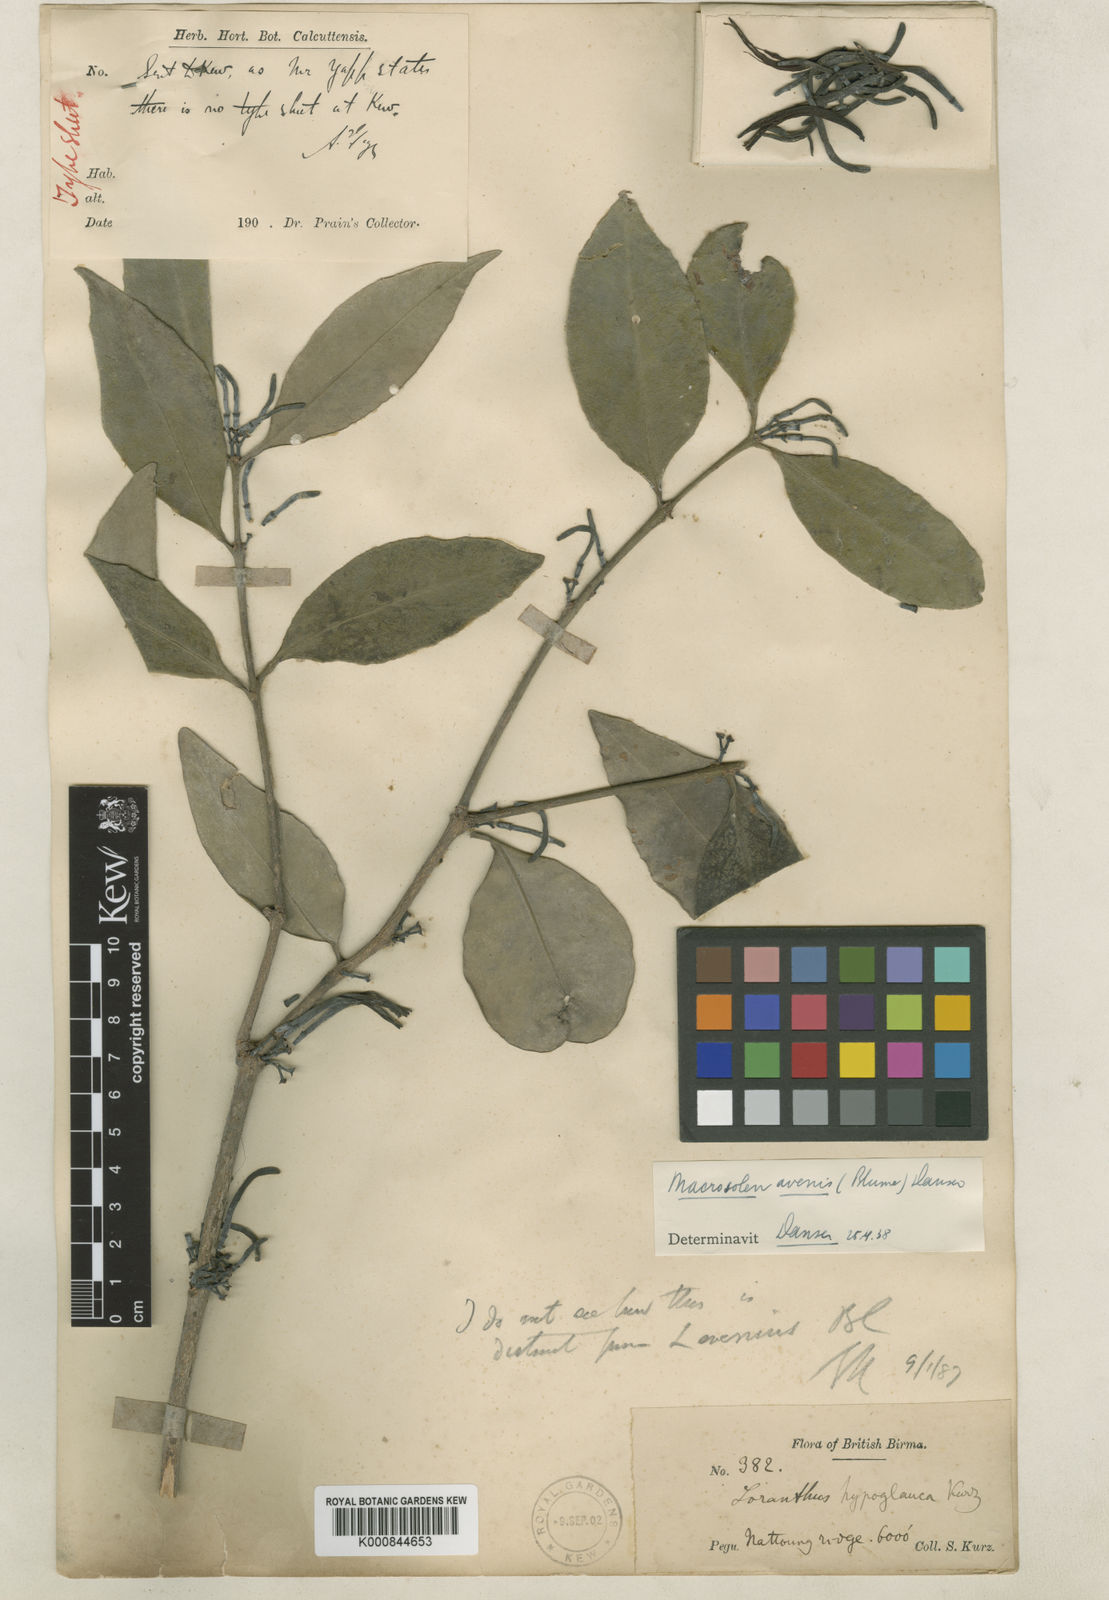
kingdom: Plantae
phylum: Tracheophyta
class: Magnoliopsida
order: Santalales
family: Loranthaceae
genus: Macrosolen
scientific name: Macrosolen
